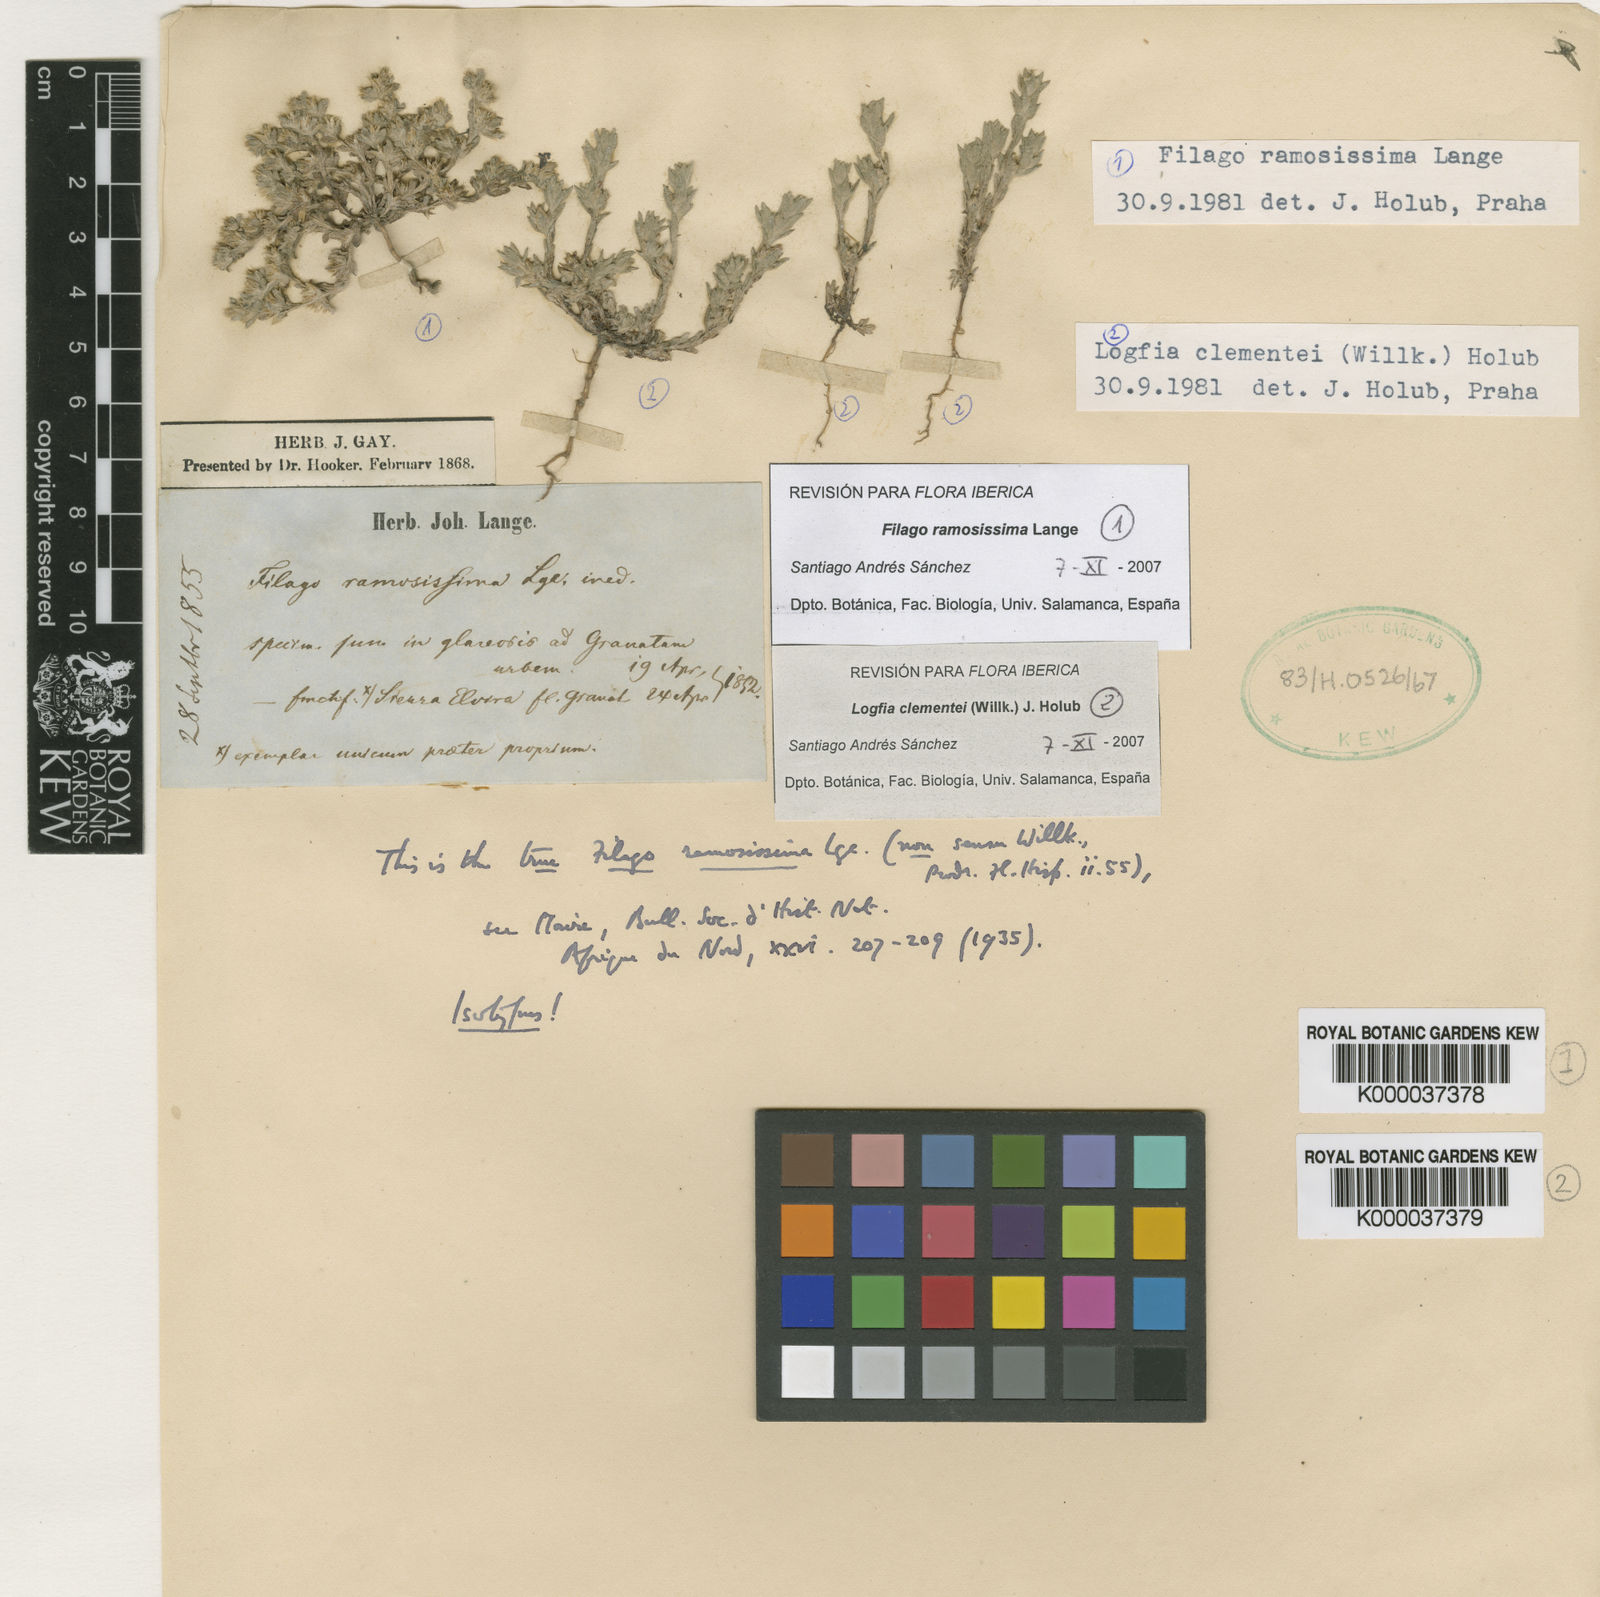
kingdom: Plantae
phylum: Tracheophyta
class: Magnoliopsida
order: Asterales
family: Asteraceae
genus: Filago
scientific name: Filago ramosissima
